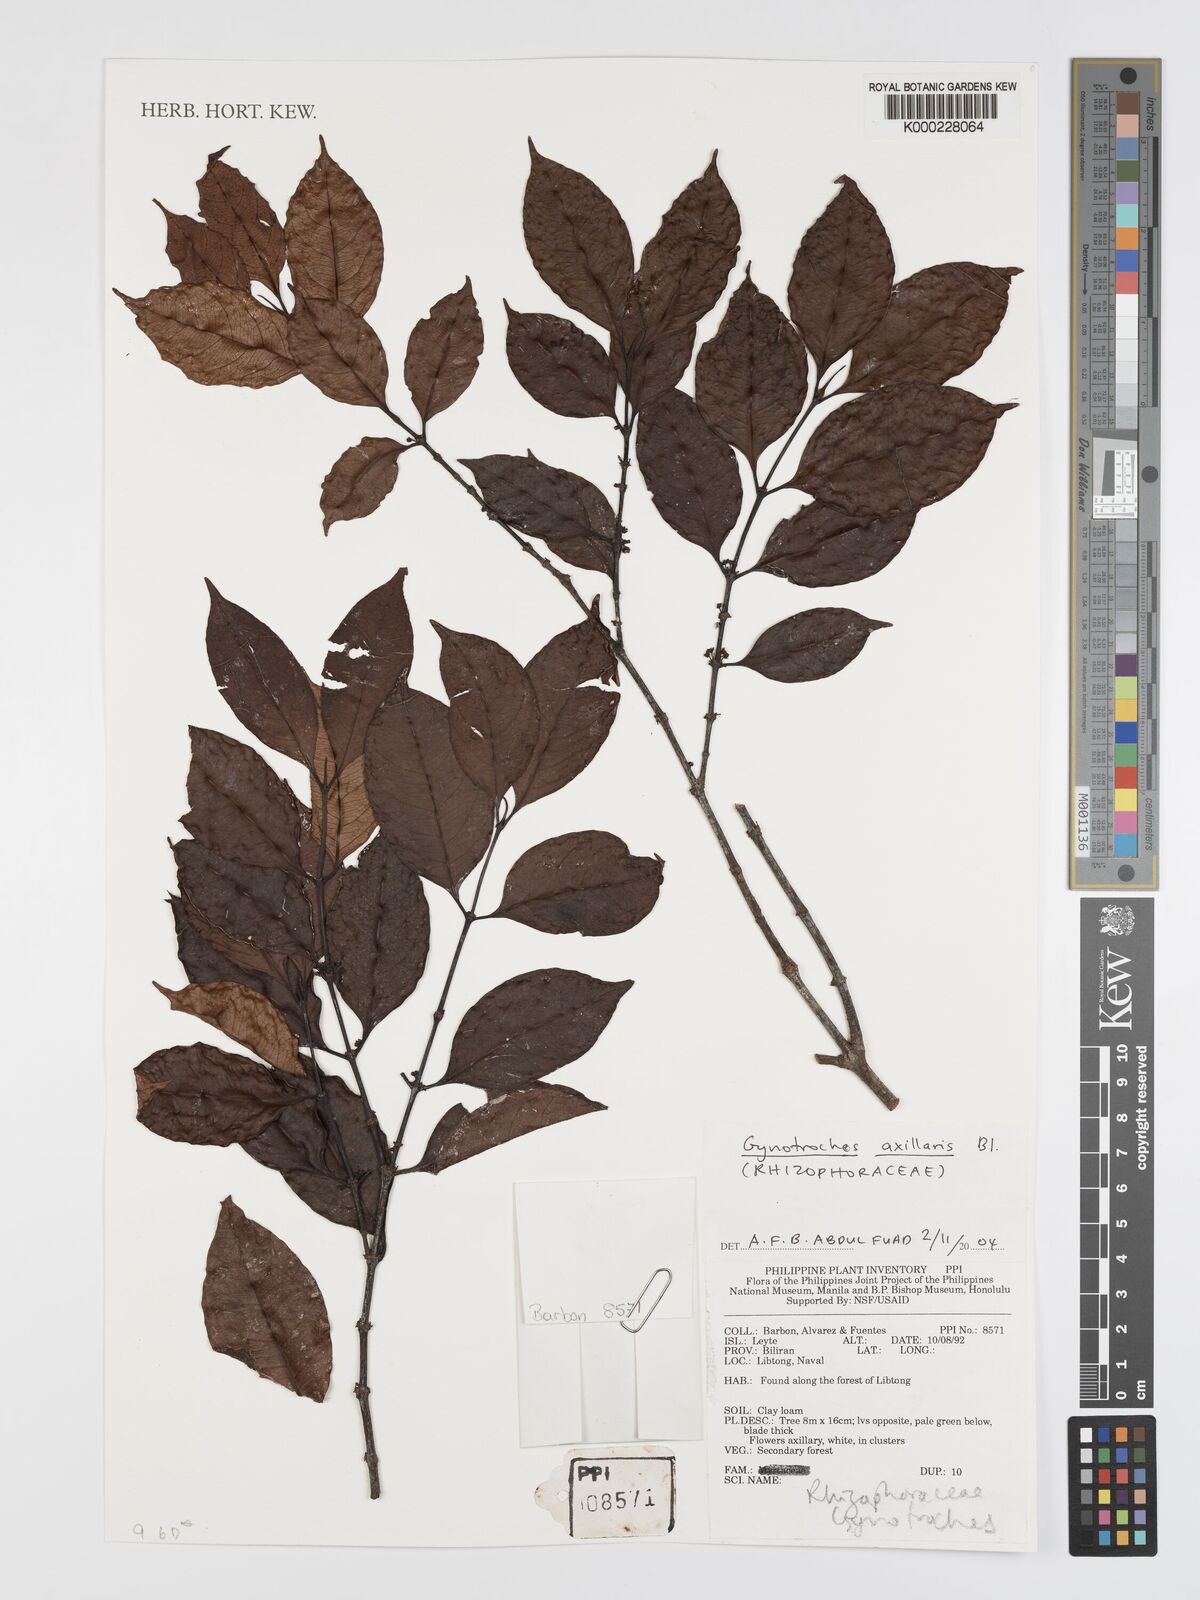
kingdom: Plantae
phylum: Tracheophyta
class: Magnoliopsida
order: Malpighiales
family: Rhizophoraceae
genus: Gynotroches
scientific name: Gynotroches axillaris
